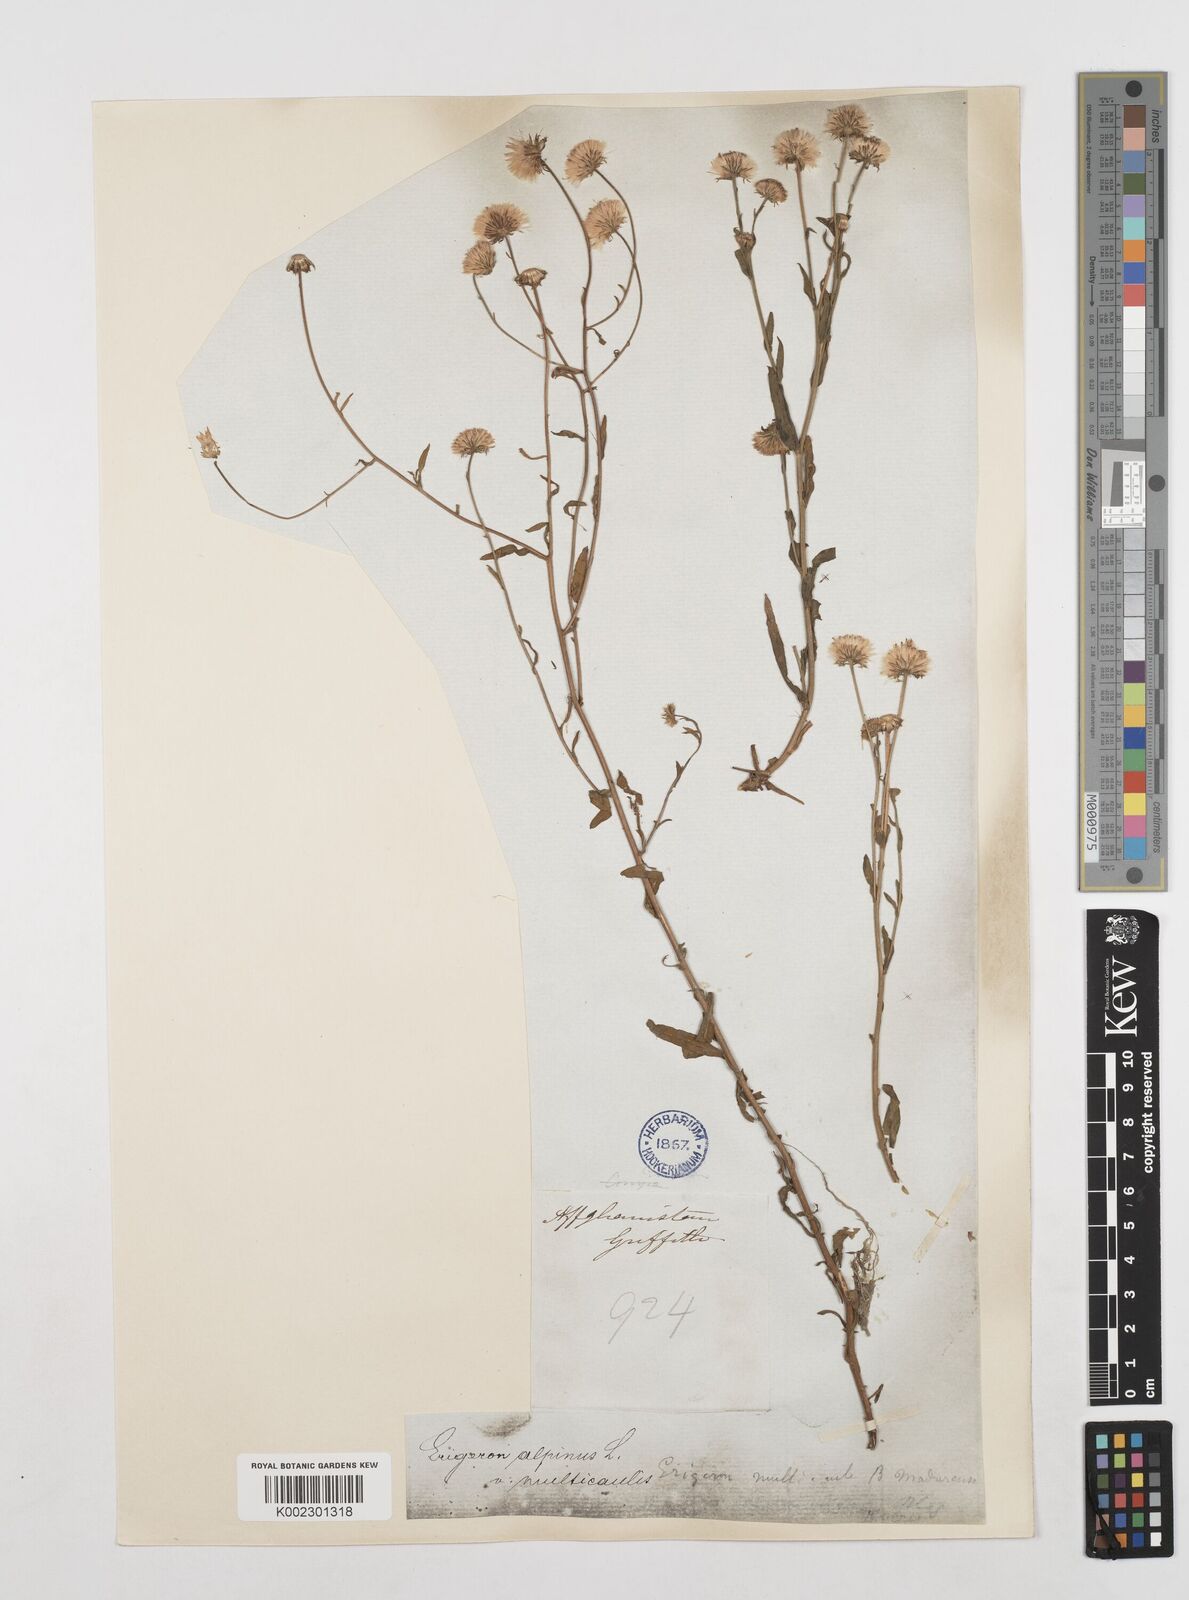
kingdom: Plantae
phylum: Tracheophyta
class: Magnoliopsida
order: Asterales
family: Asteraceae
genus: Erigeron
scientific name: Erigeron acris
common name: Blue fleabane
